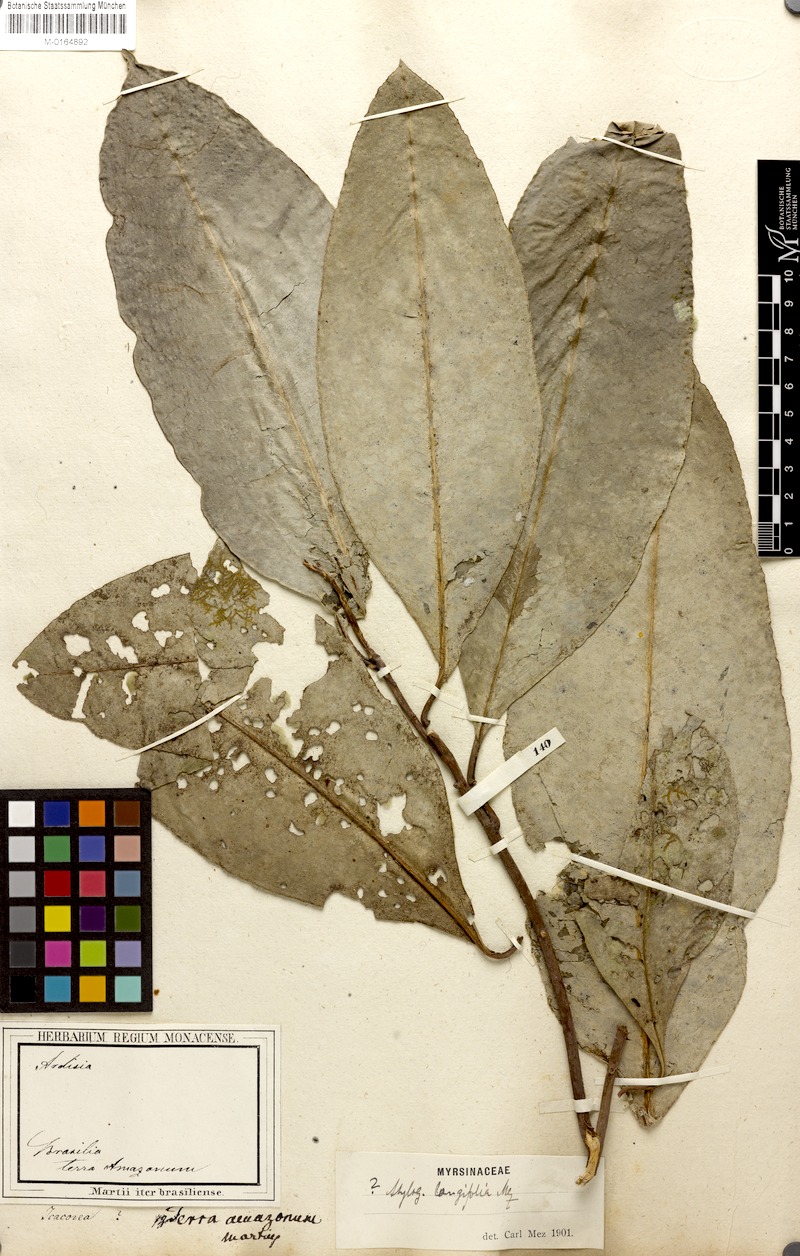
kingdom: Plantae
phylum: Tracheophyta
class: Magnoliopsida
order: Ericales
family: Primulaceae
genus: Ardisia
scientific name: Ardisia
